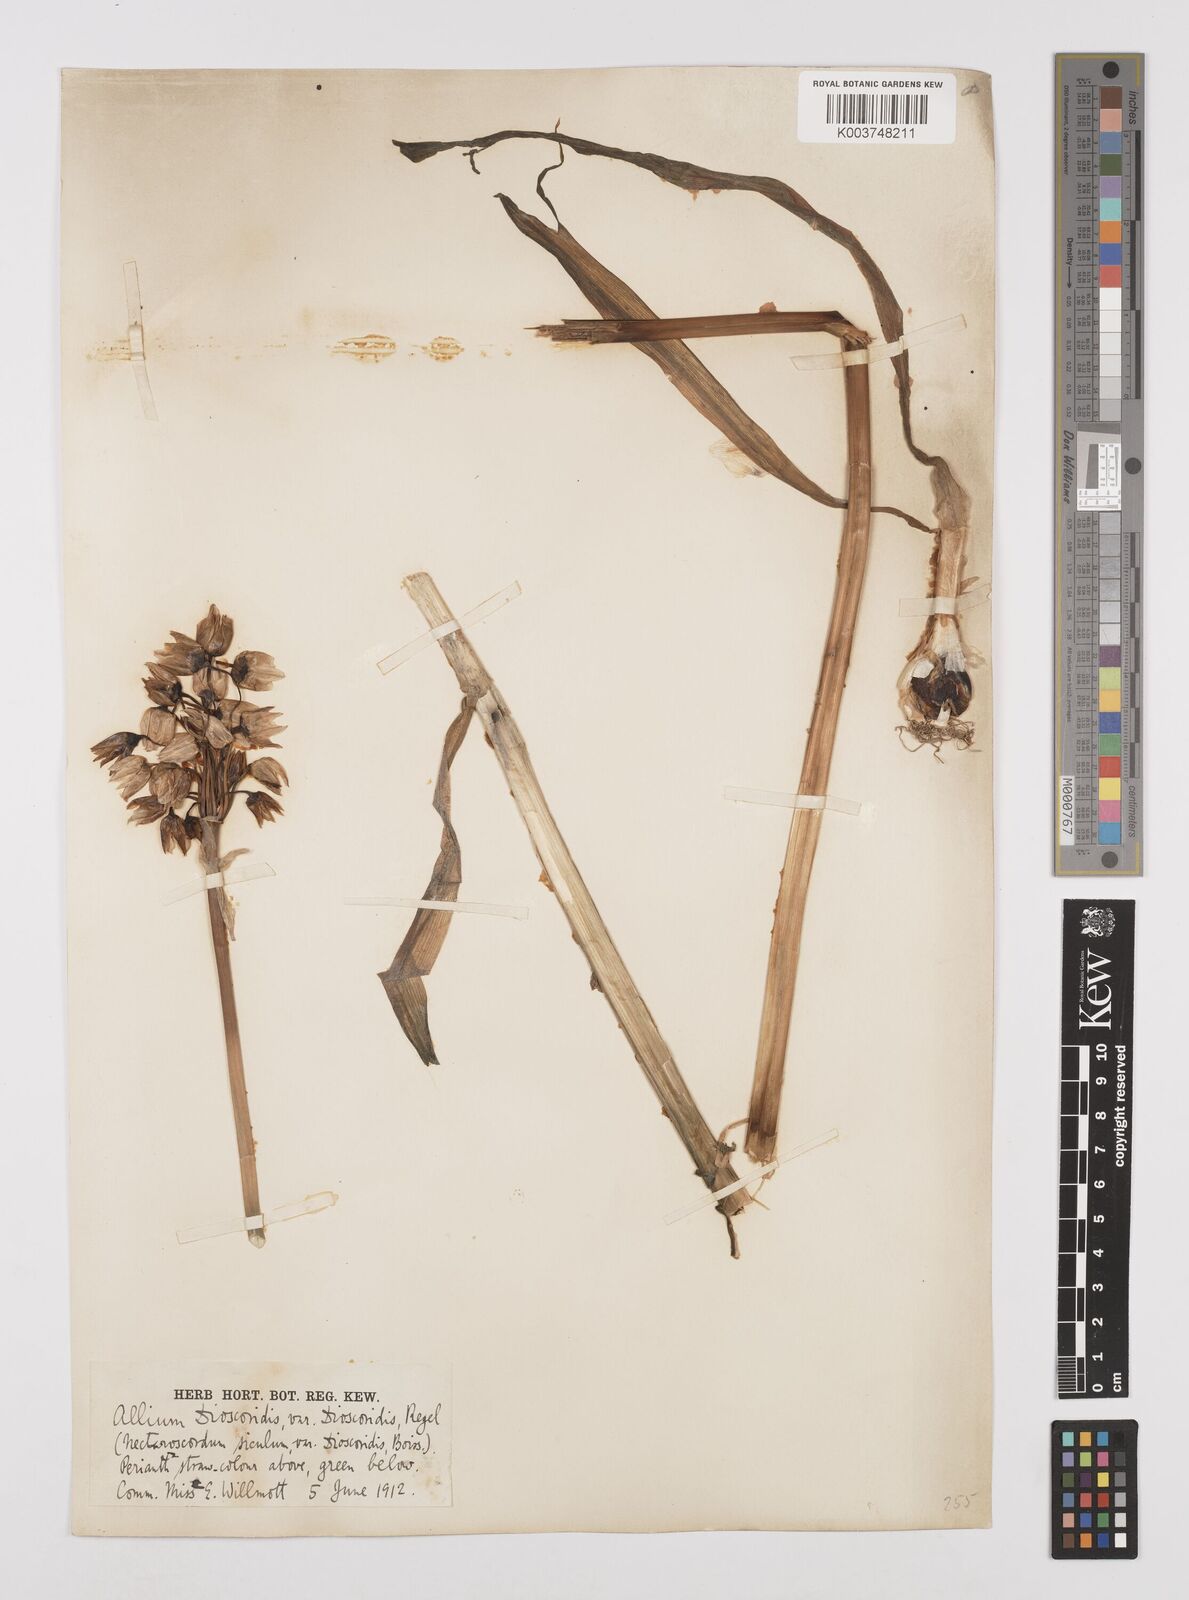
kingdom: Plantae
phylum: Tracheophyta
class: Liliopsida
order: Asparagales
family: Amaryllidaceae
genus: Allium
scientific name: Allium siculum
